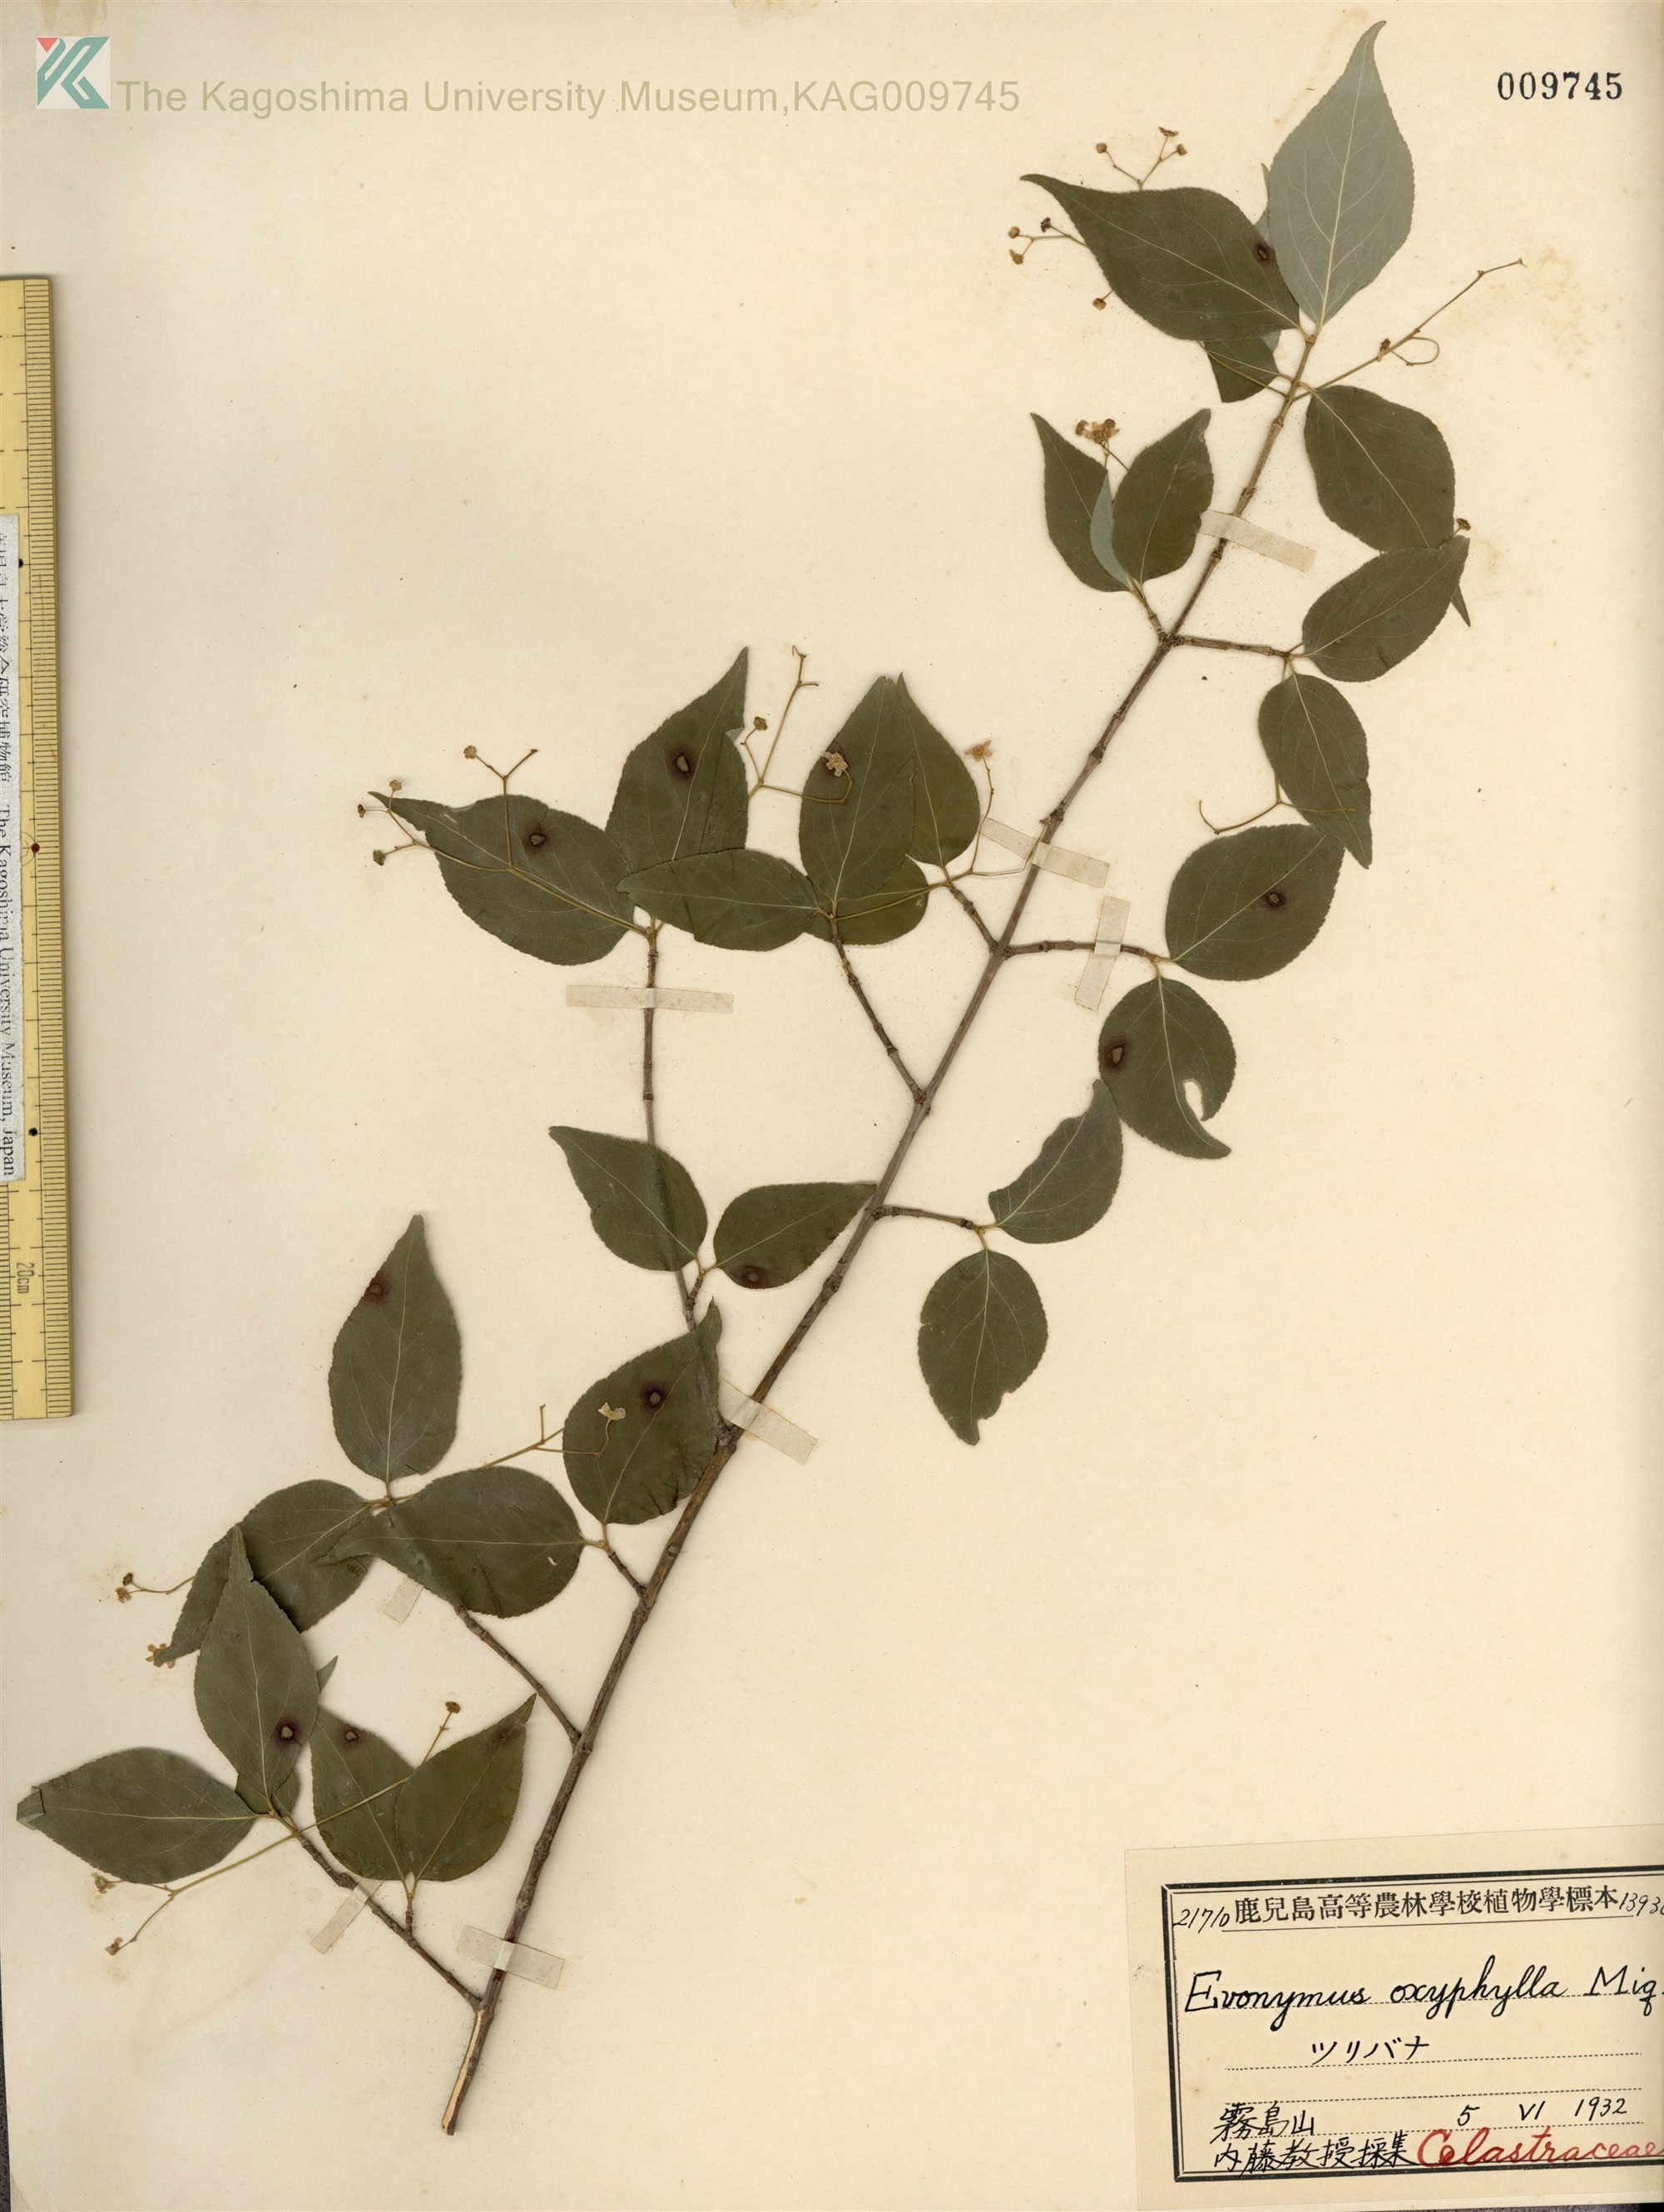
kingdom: Plantae
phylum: Tracheophyta
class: Magnoliopsida
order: Celastrales
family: Celastraceae
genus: Euonymus
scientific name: Euonymus oxyphyllus
